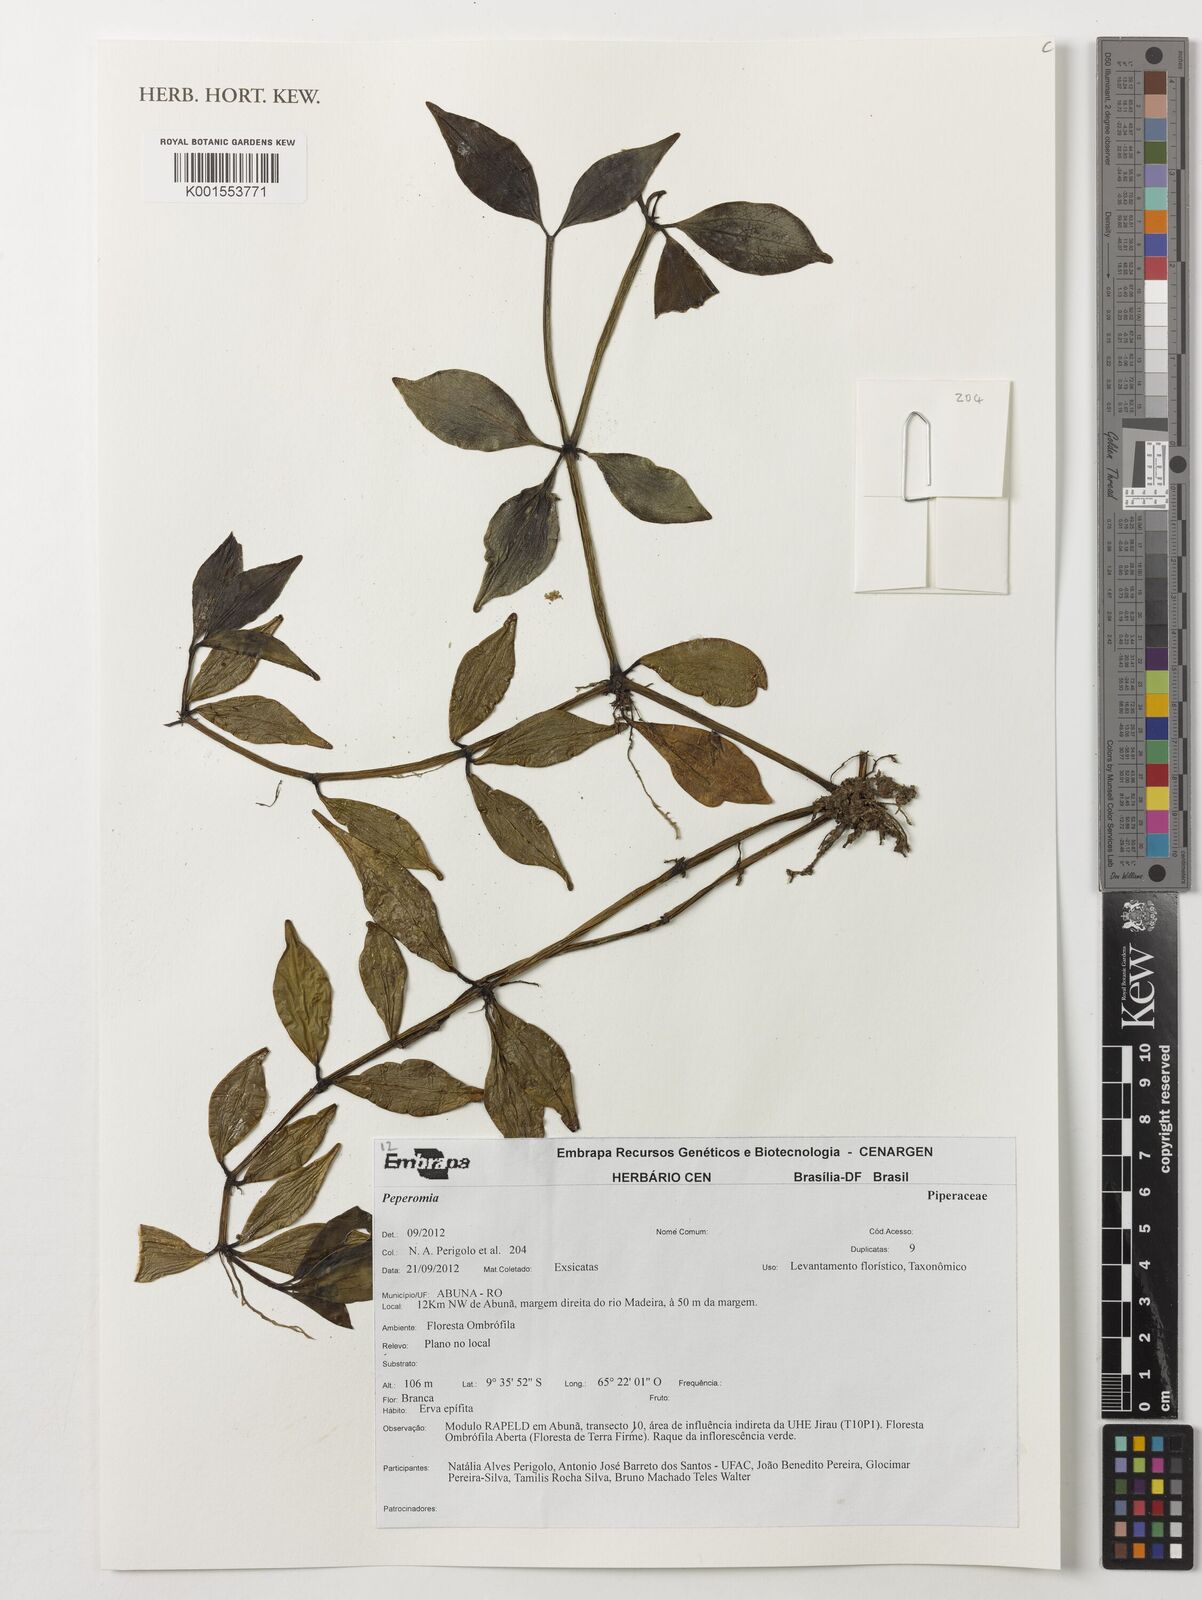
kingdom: Plantae
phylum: Tracheophyta
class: Magnoliopsida
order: Piperales
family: Piperaceae
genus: Peperomia
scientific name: Peperomia
